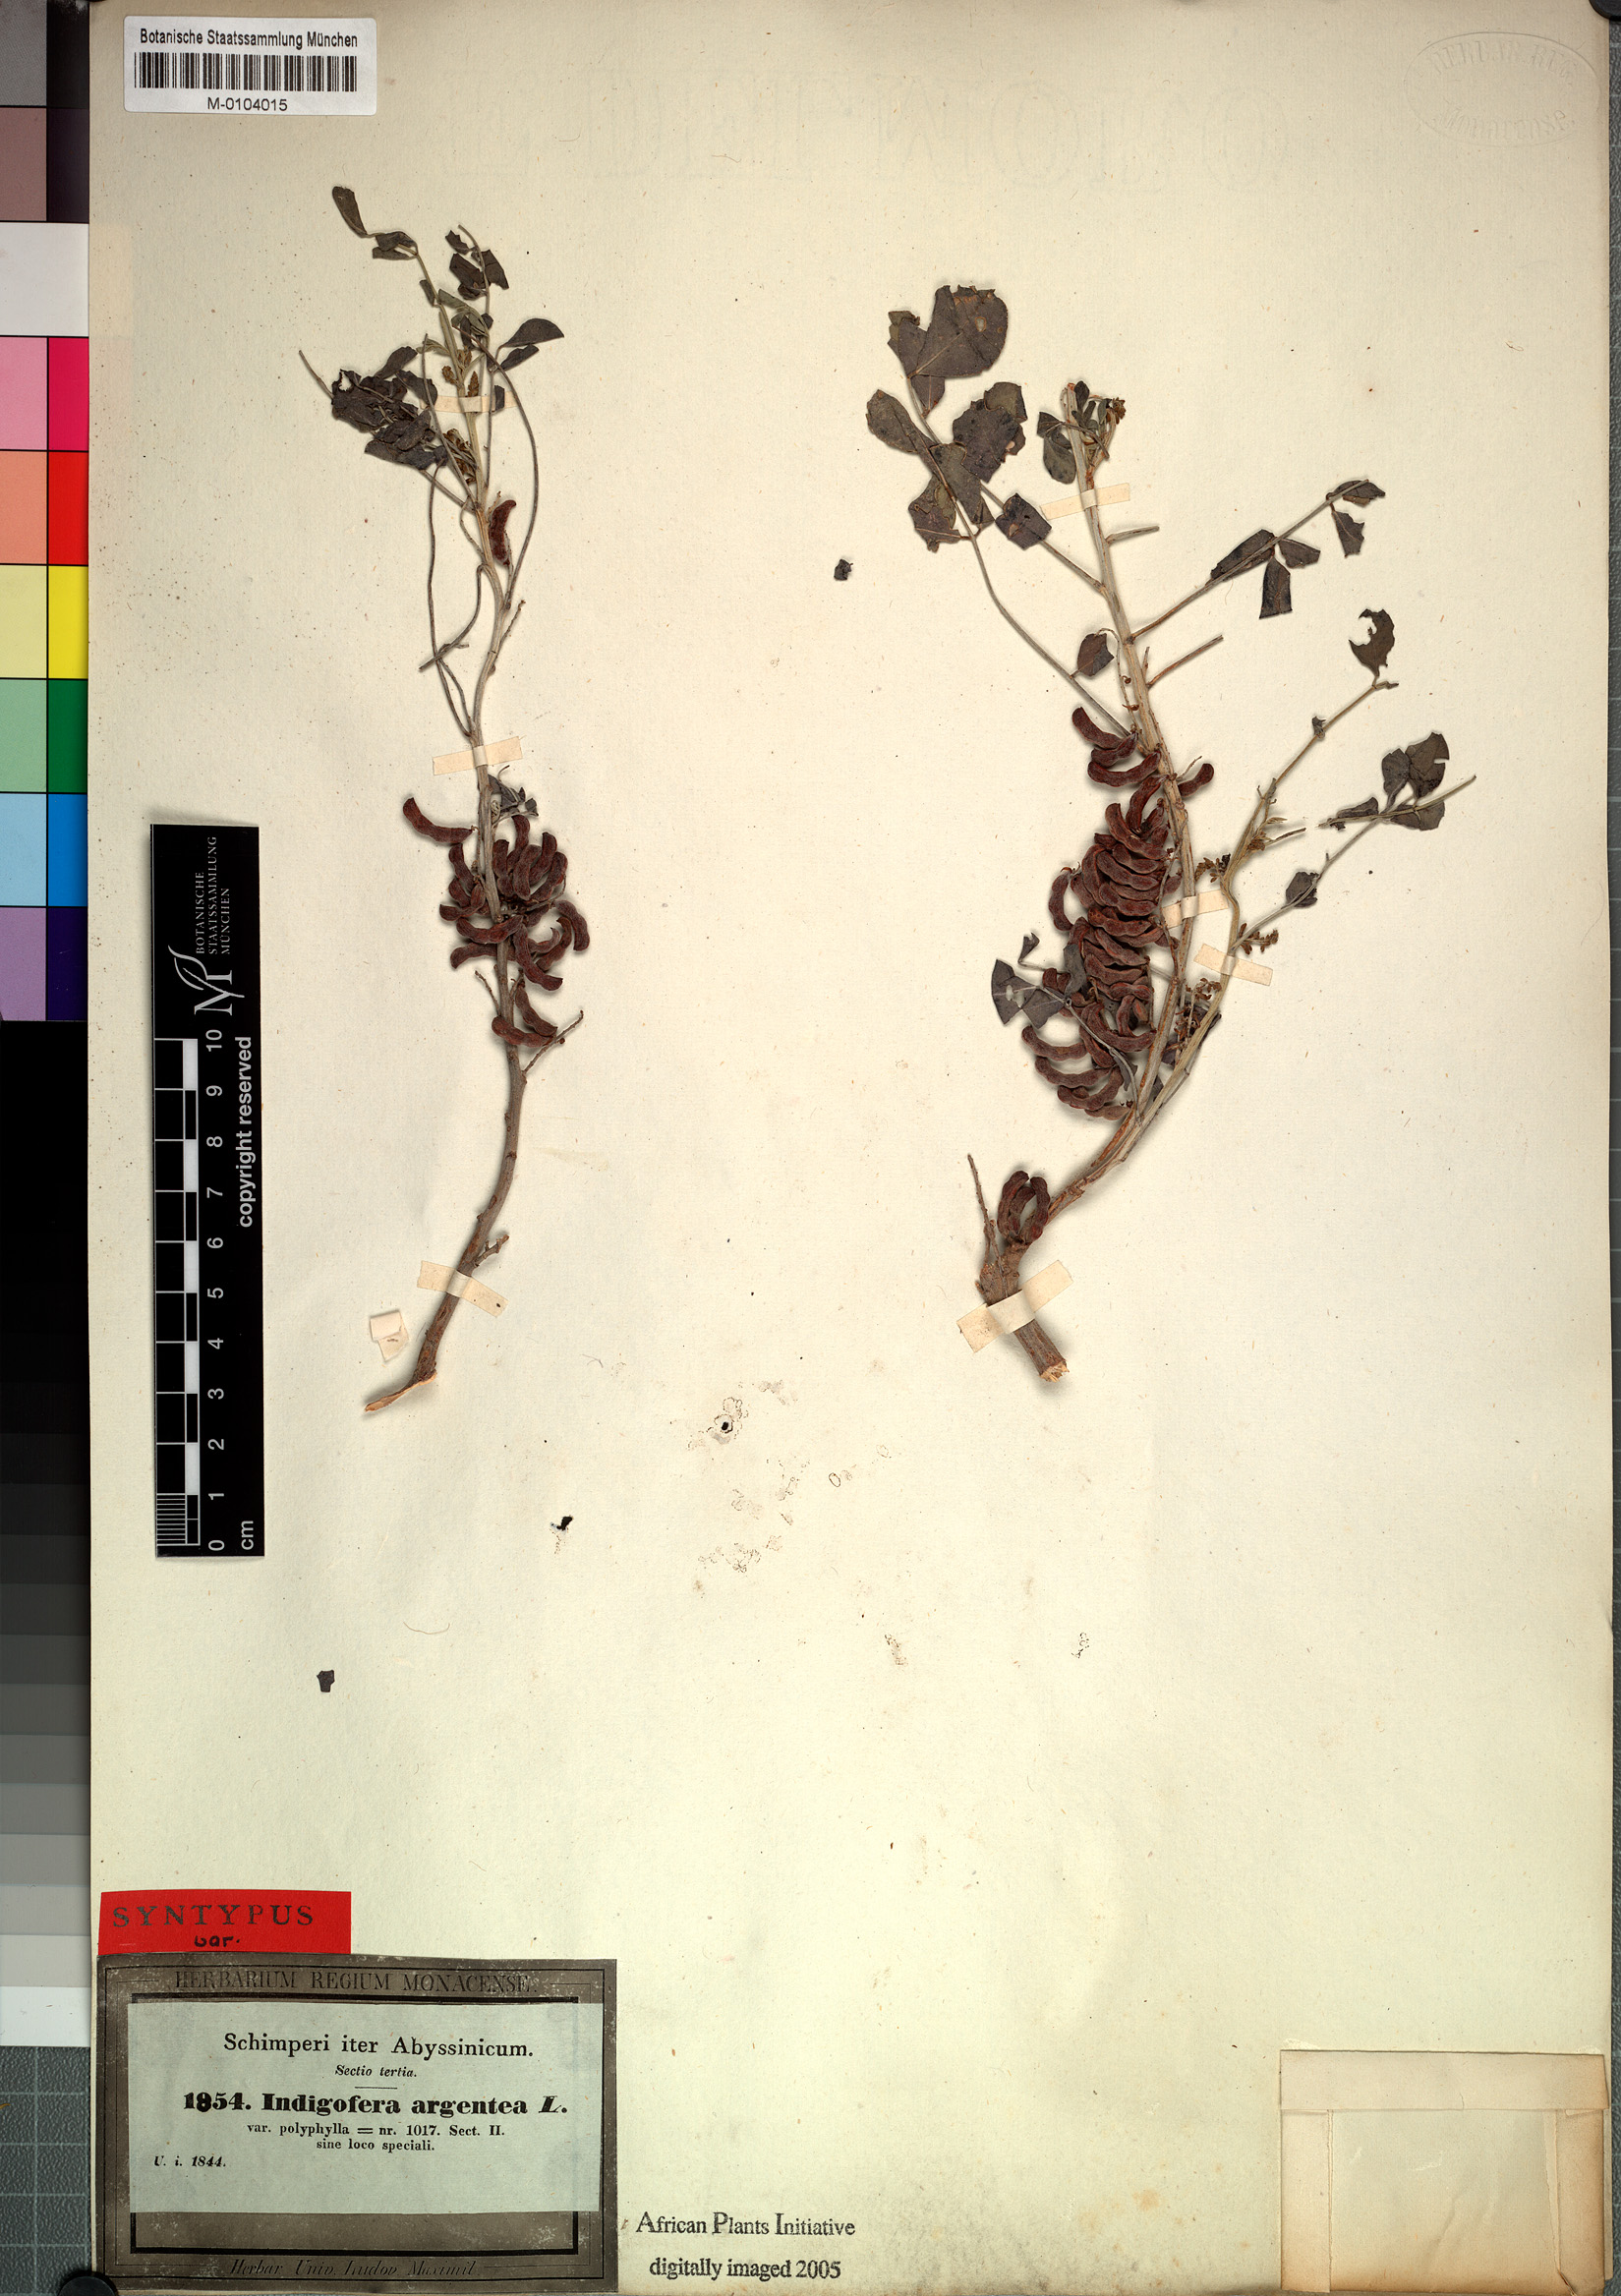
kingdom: Plantae
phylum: Tracheophyta
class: Magnoliopsida
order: Fabales
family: Fabaceae
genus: Indigofera
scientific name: Indigofera coerulea
